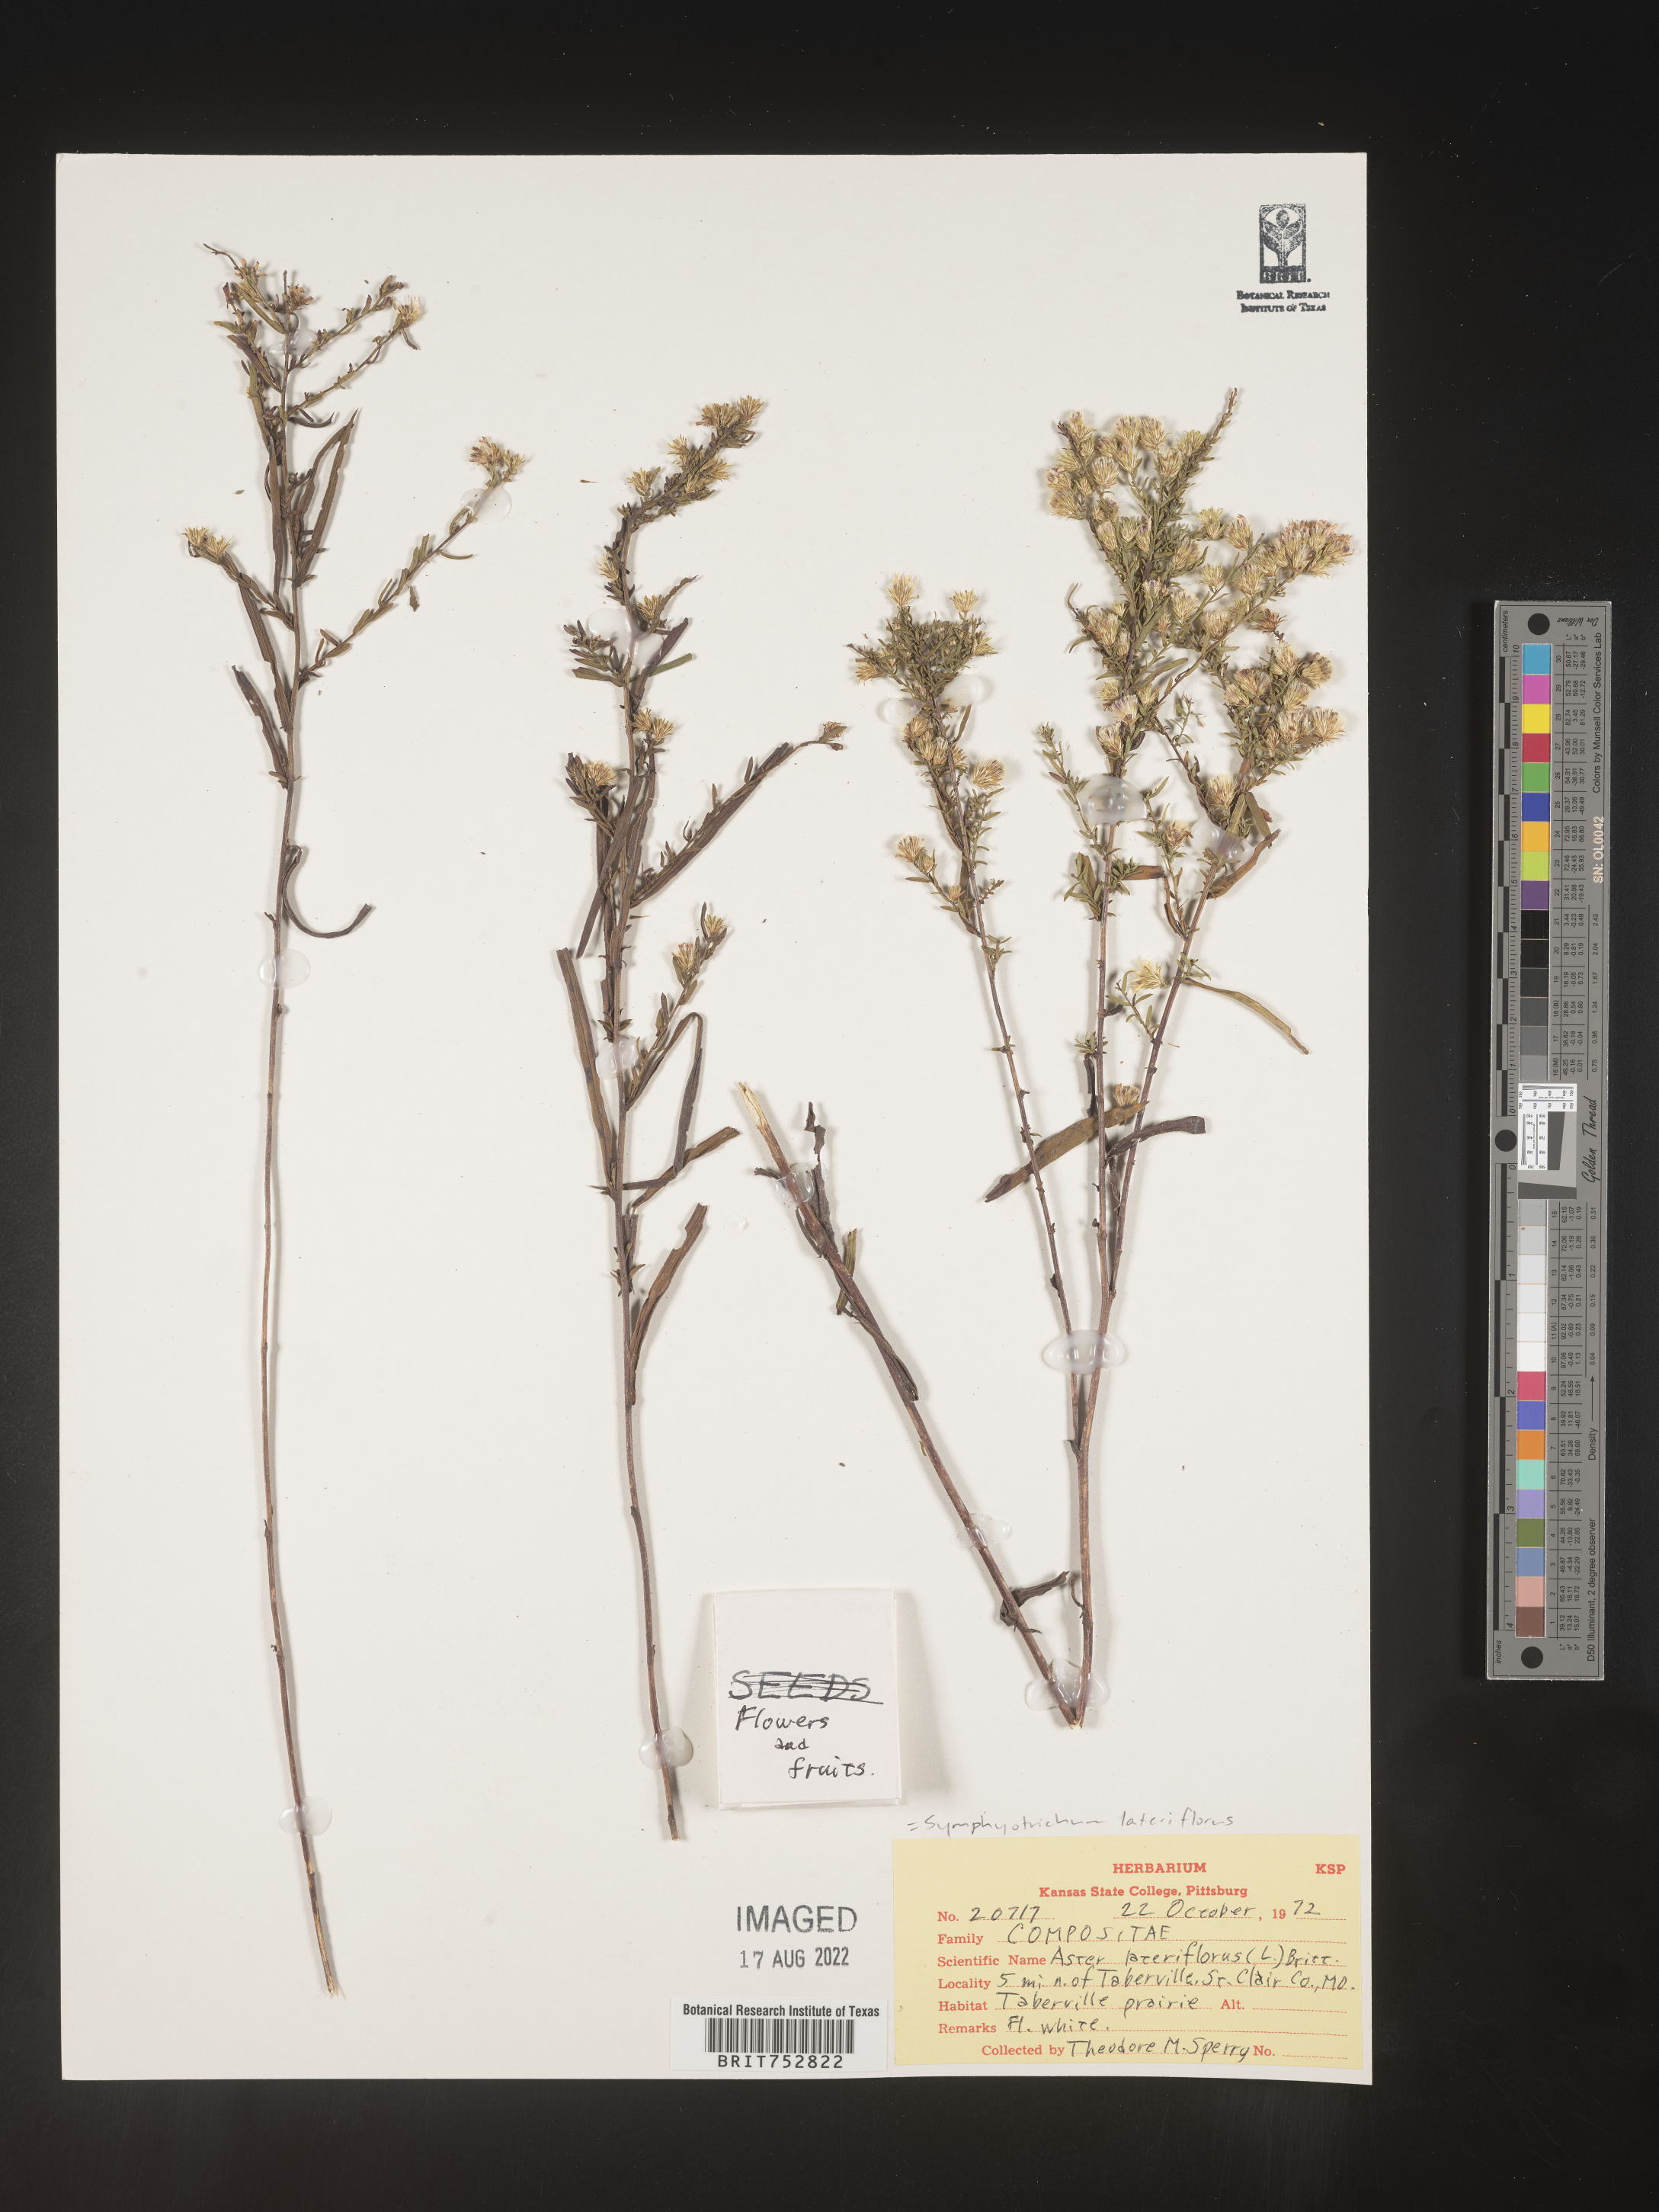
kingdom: Plantae
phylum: Tracheophyta
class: Magnoliopsida
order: Asterales
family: Asteraceae
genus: Symphyotrichum
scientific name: Symphyotrichum lateriflorum
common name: Calico aster
